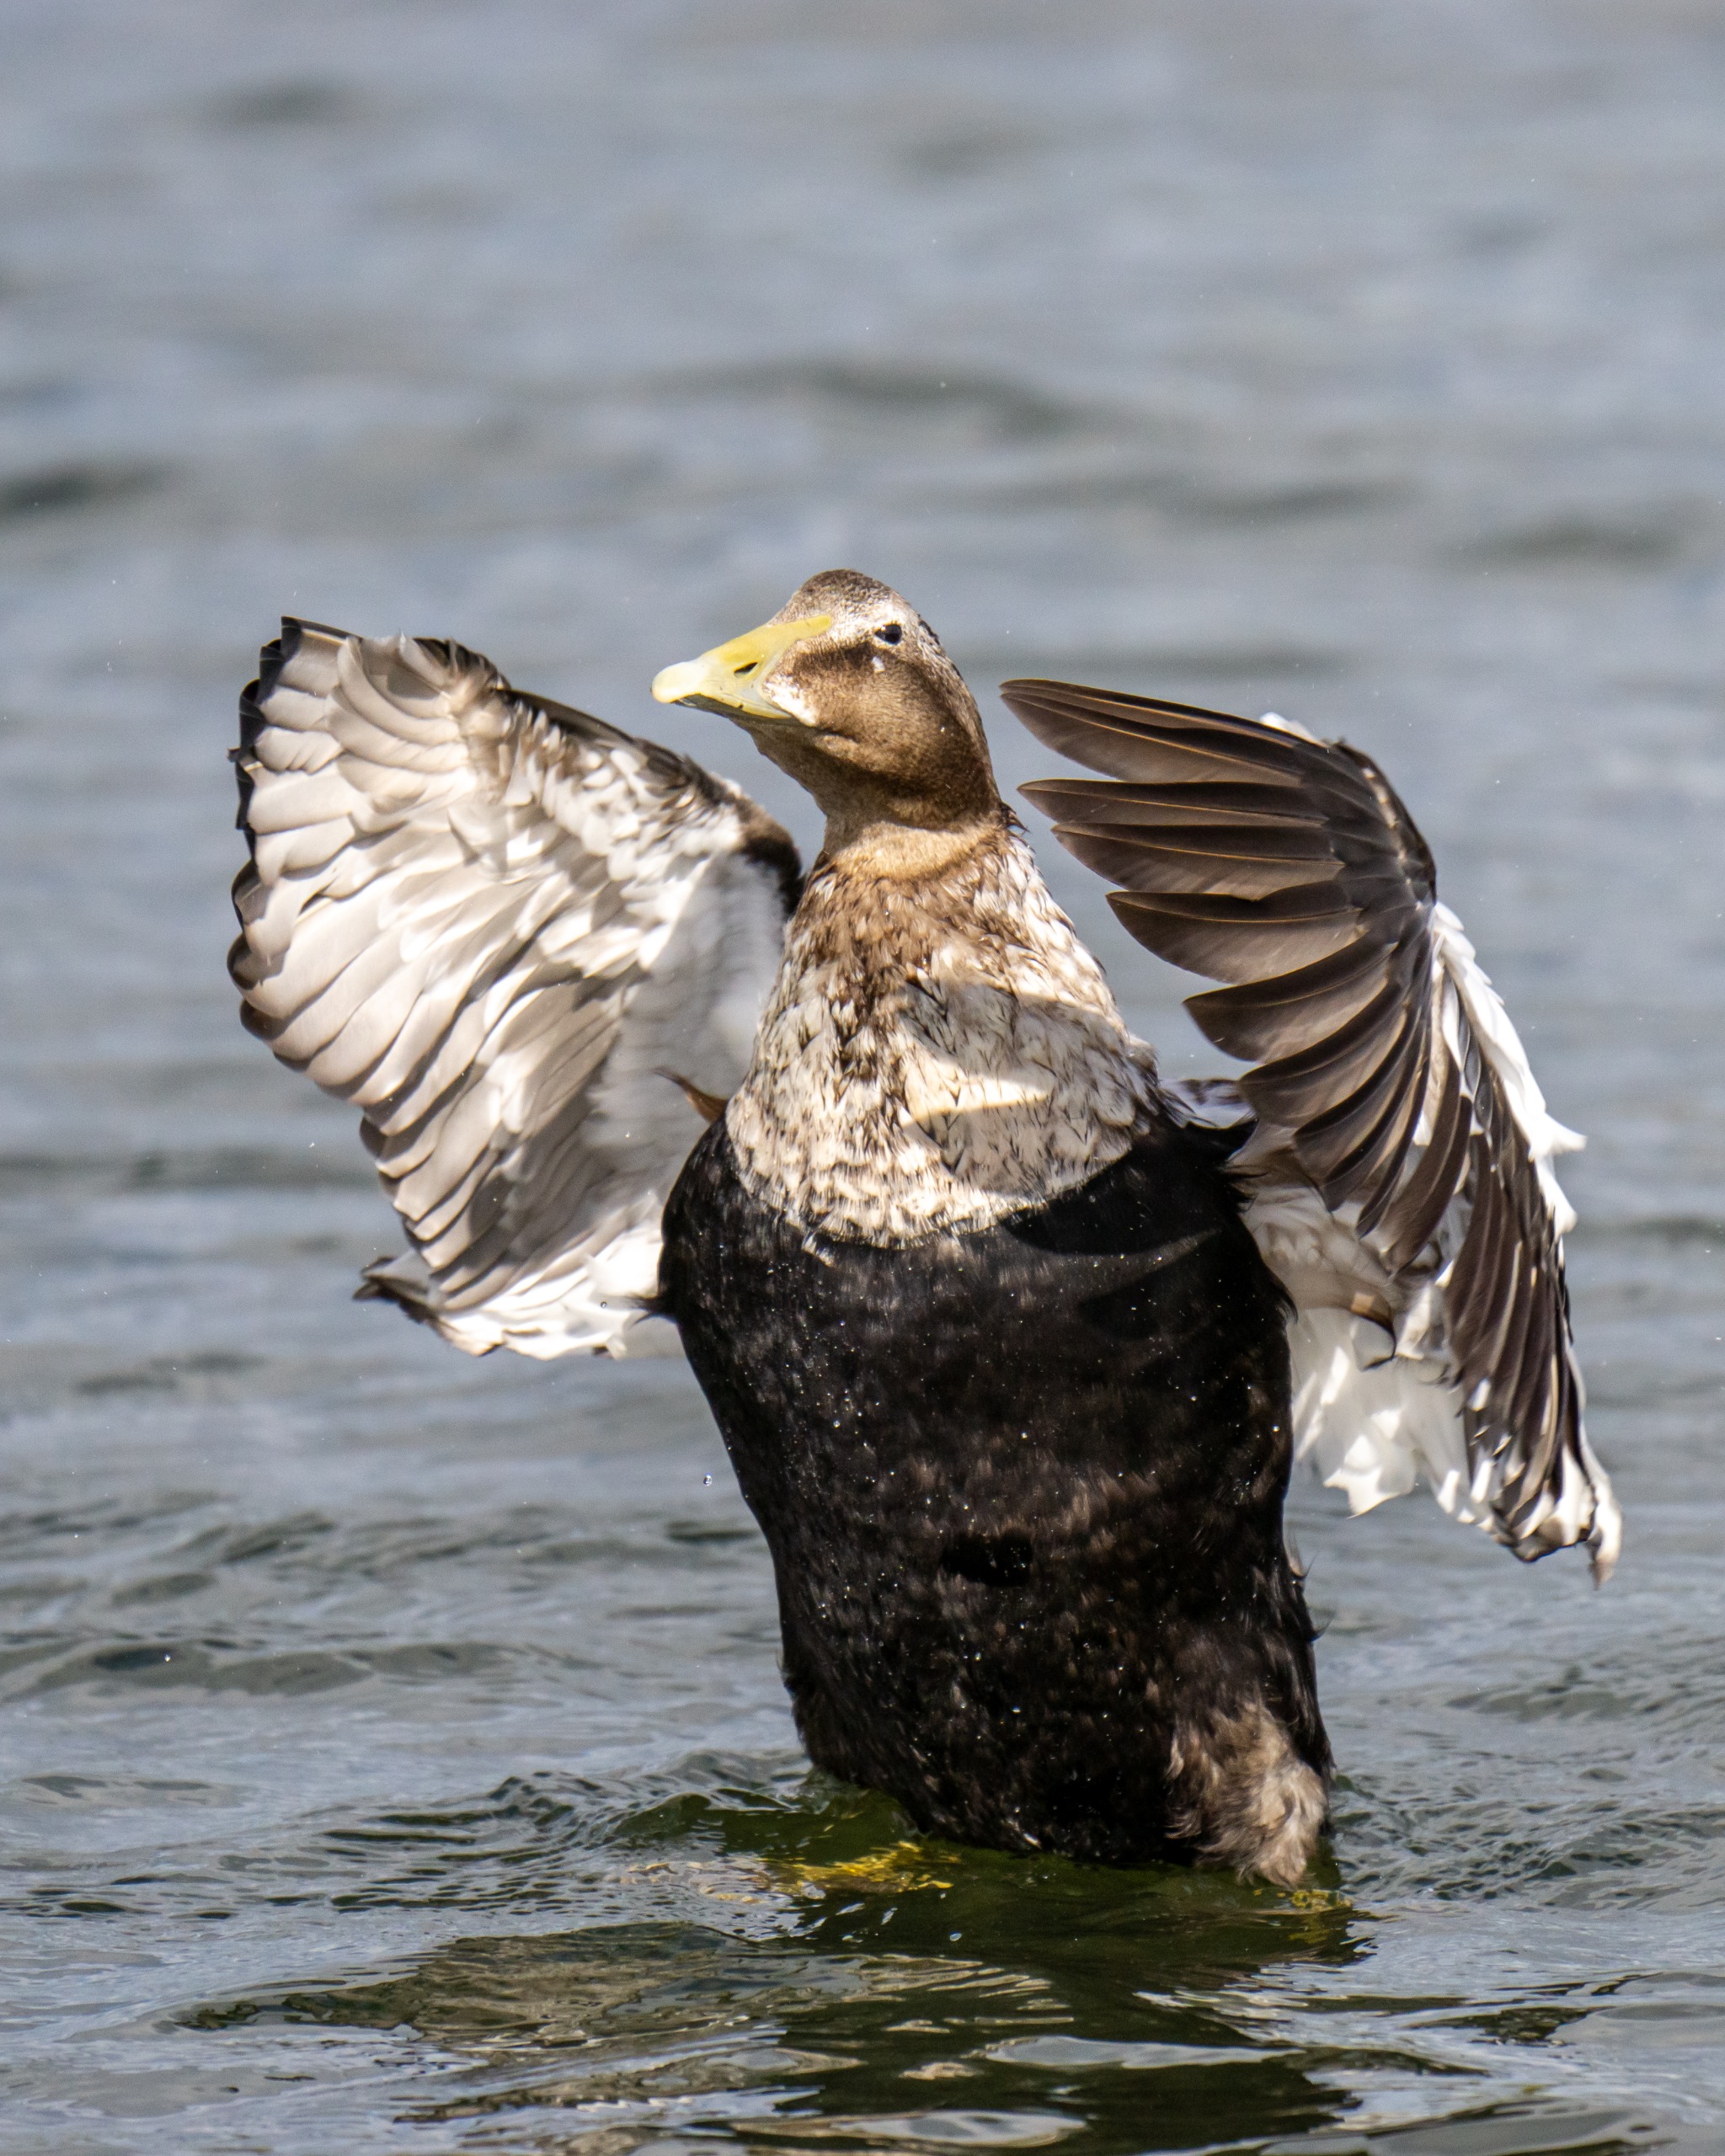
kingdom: Animalia
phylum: Chordata
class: Aves
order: Anseriformes
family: Anatidae
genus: Somateria
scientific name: Somateria mollissima
